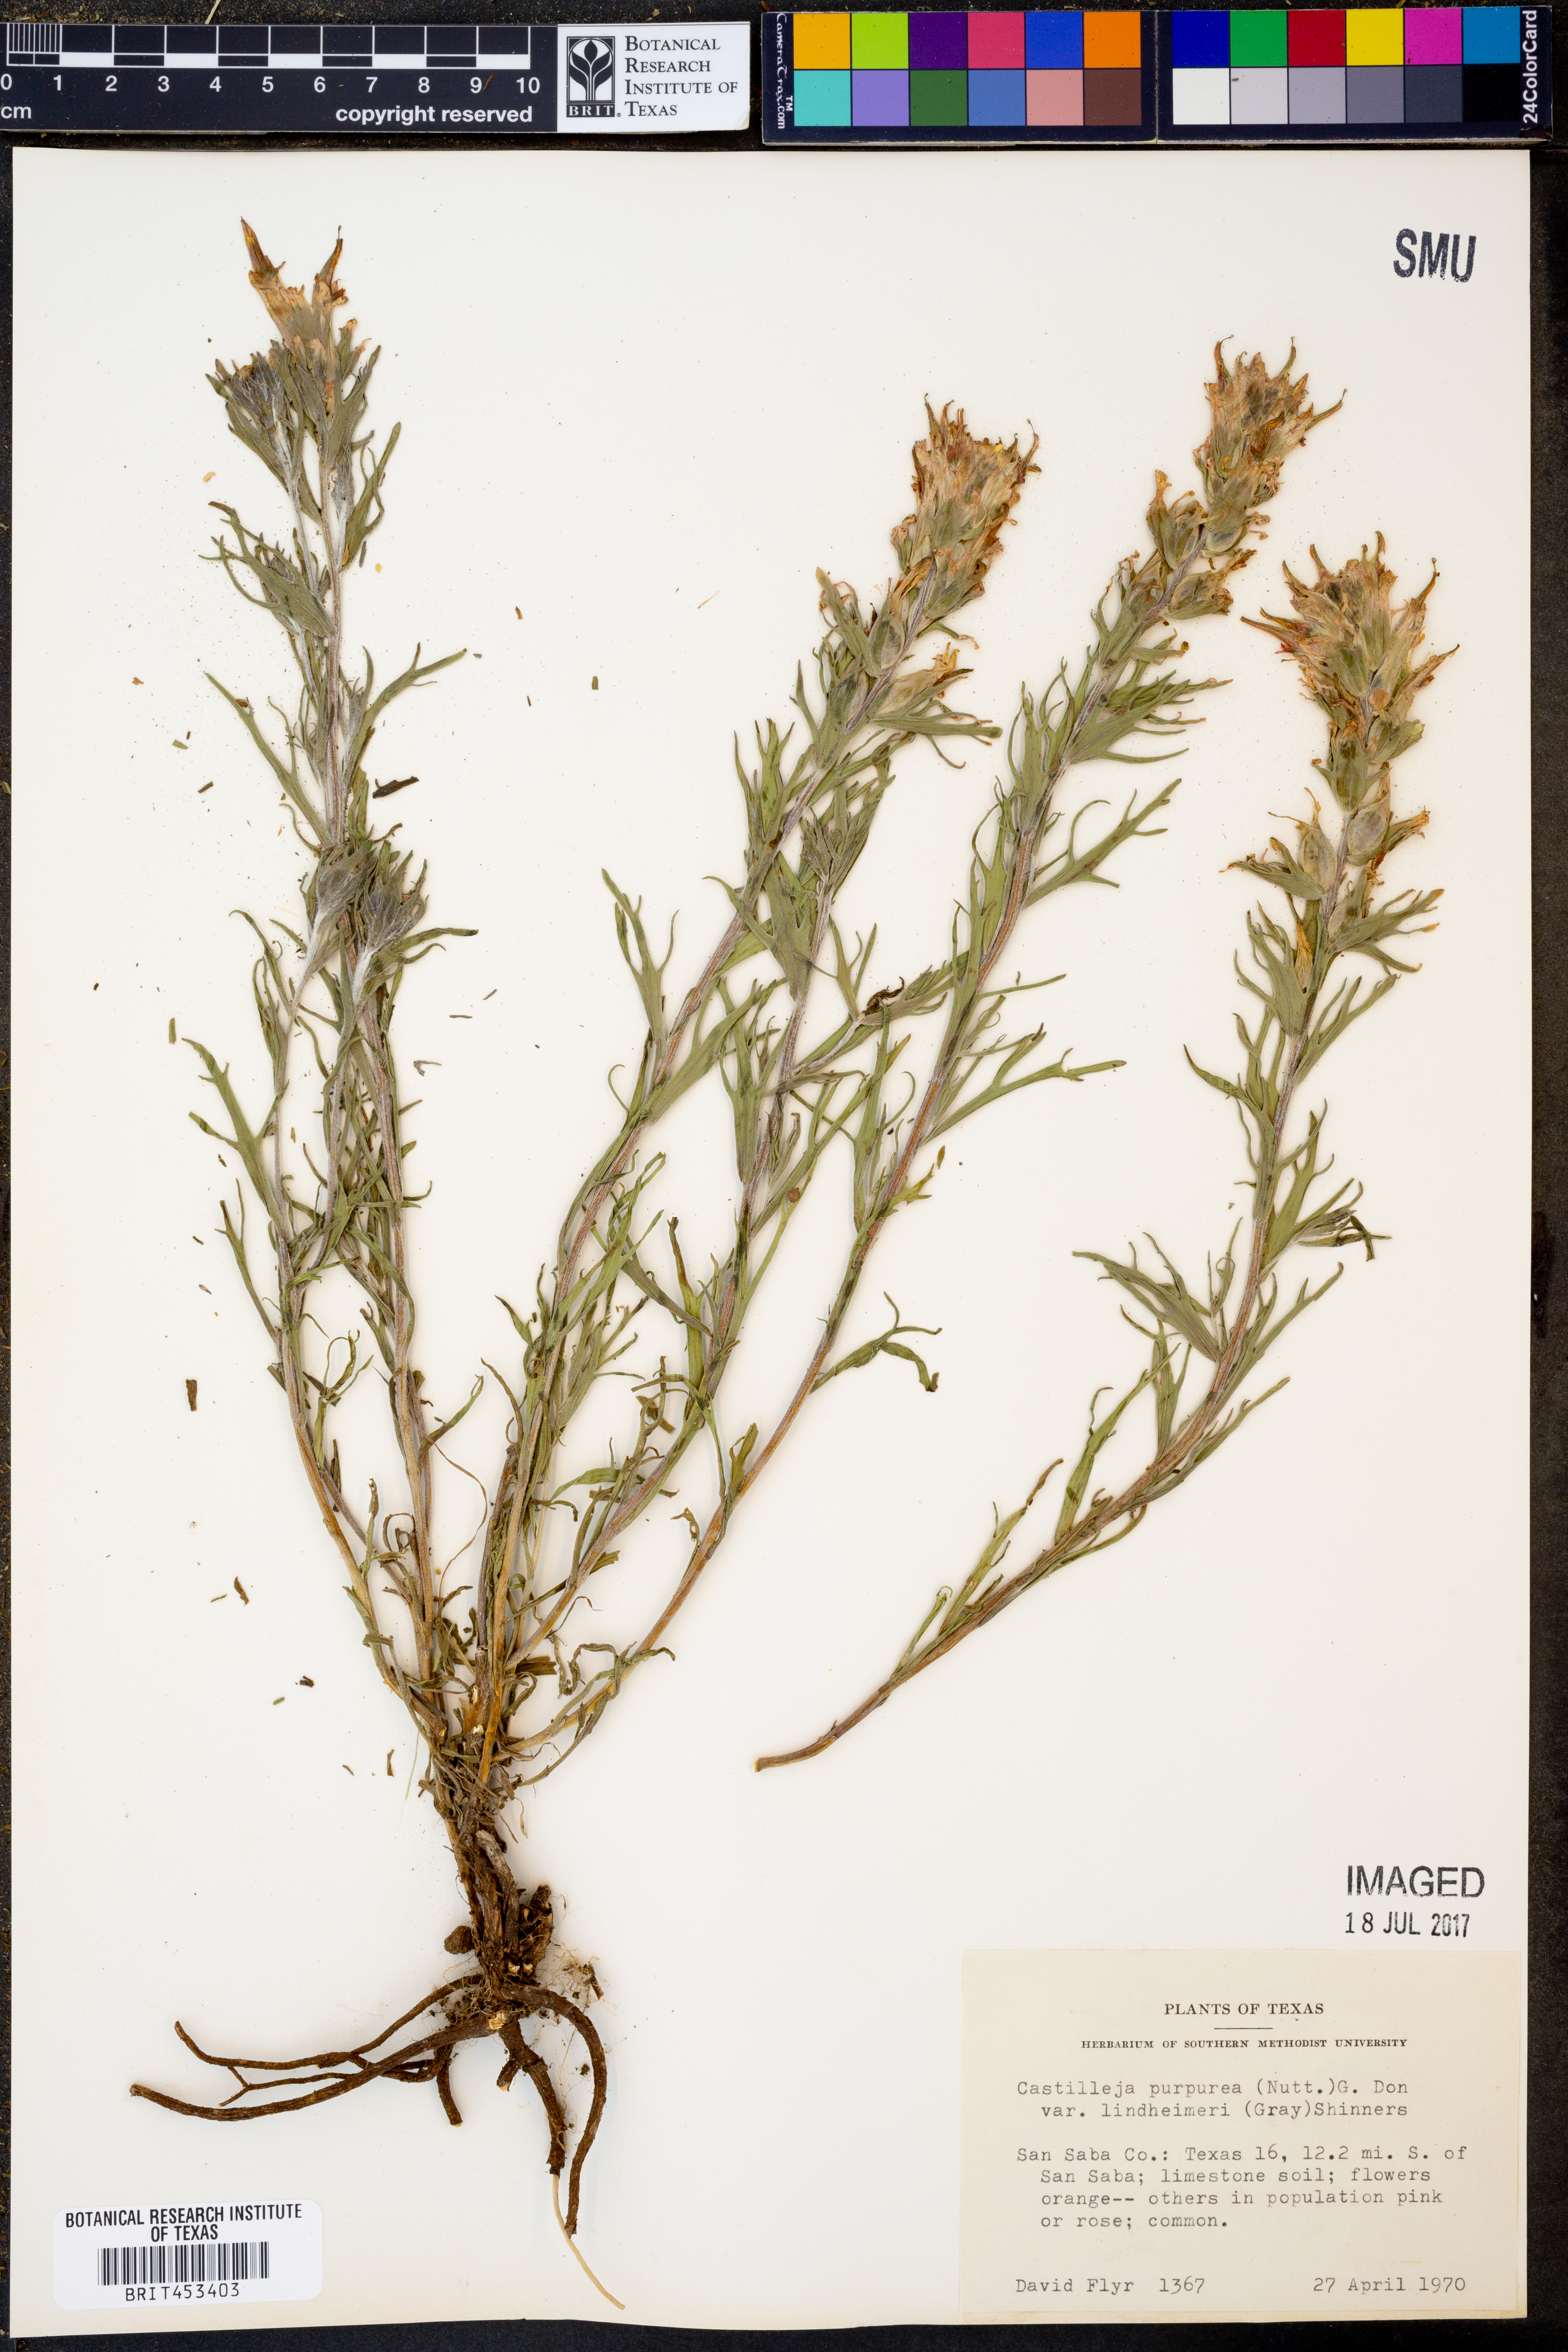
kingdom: Plantae
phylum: Tracheophyta
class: Magnoliopsida
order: Lamiales
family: Orobanchaceae
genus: Castilleja
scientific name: Castilleja lindheimeri
